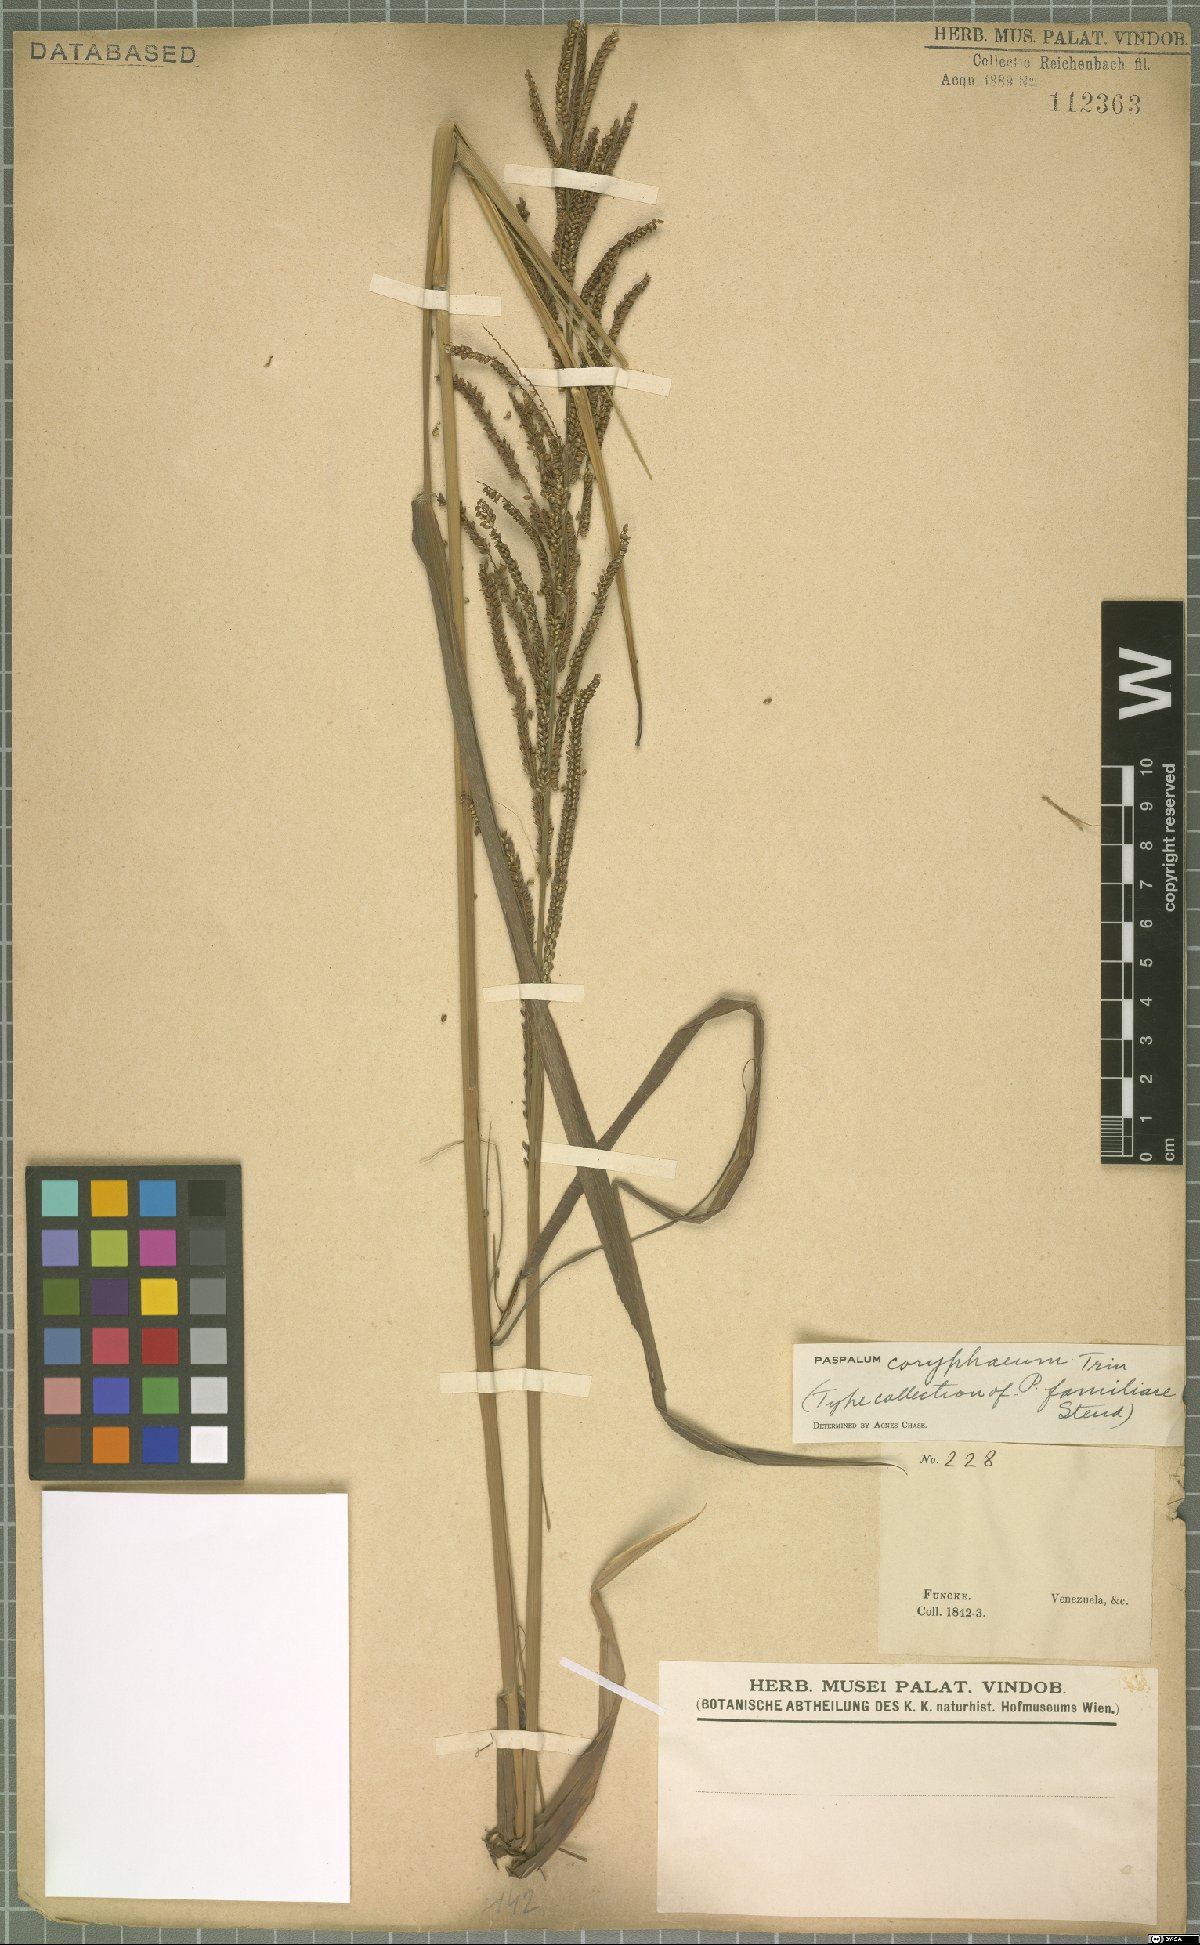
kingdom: Plantae
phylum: Tracheophyta
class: Liliopsida
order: Poales
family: Poaceae
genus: Paspalum
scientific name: Paspalum coryphaeum
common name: Emperor crowngrass
